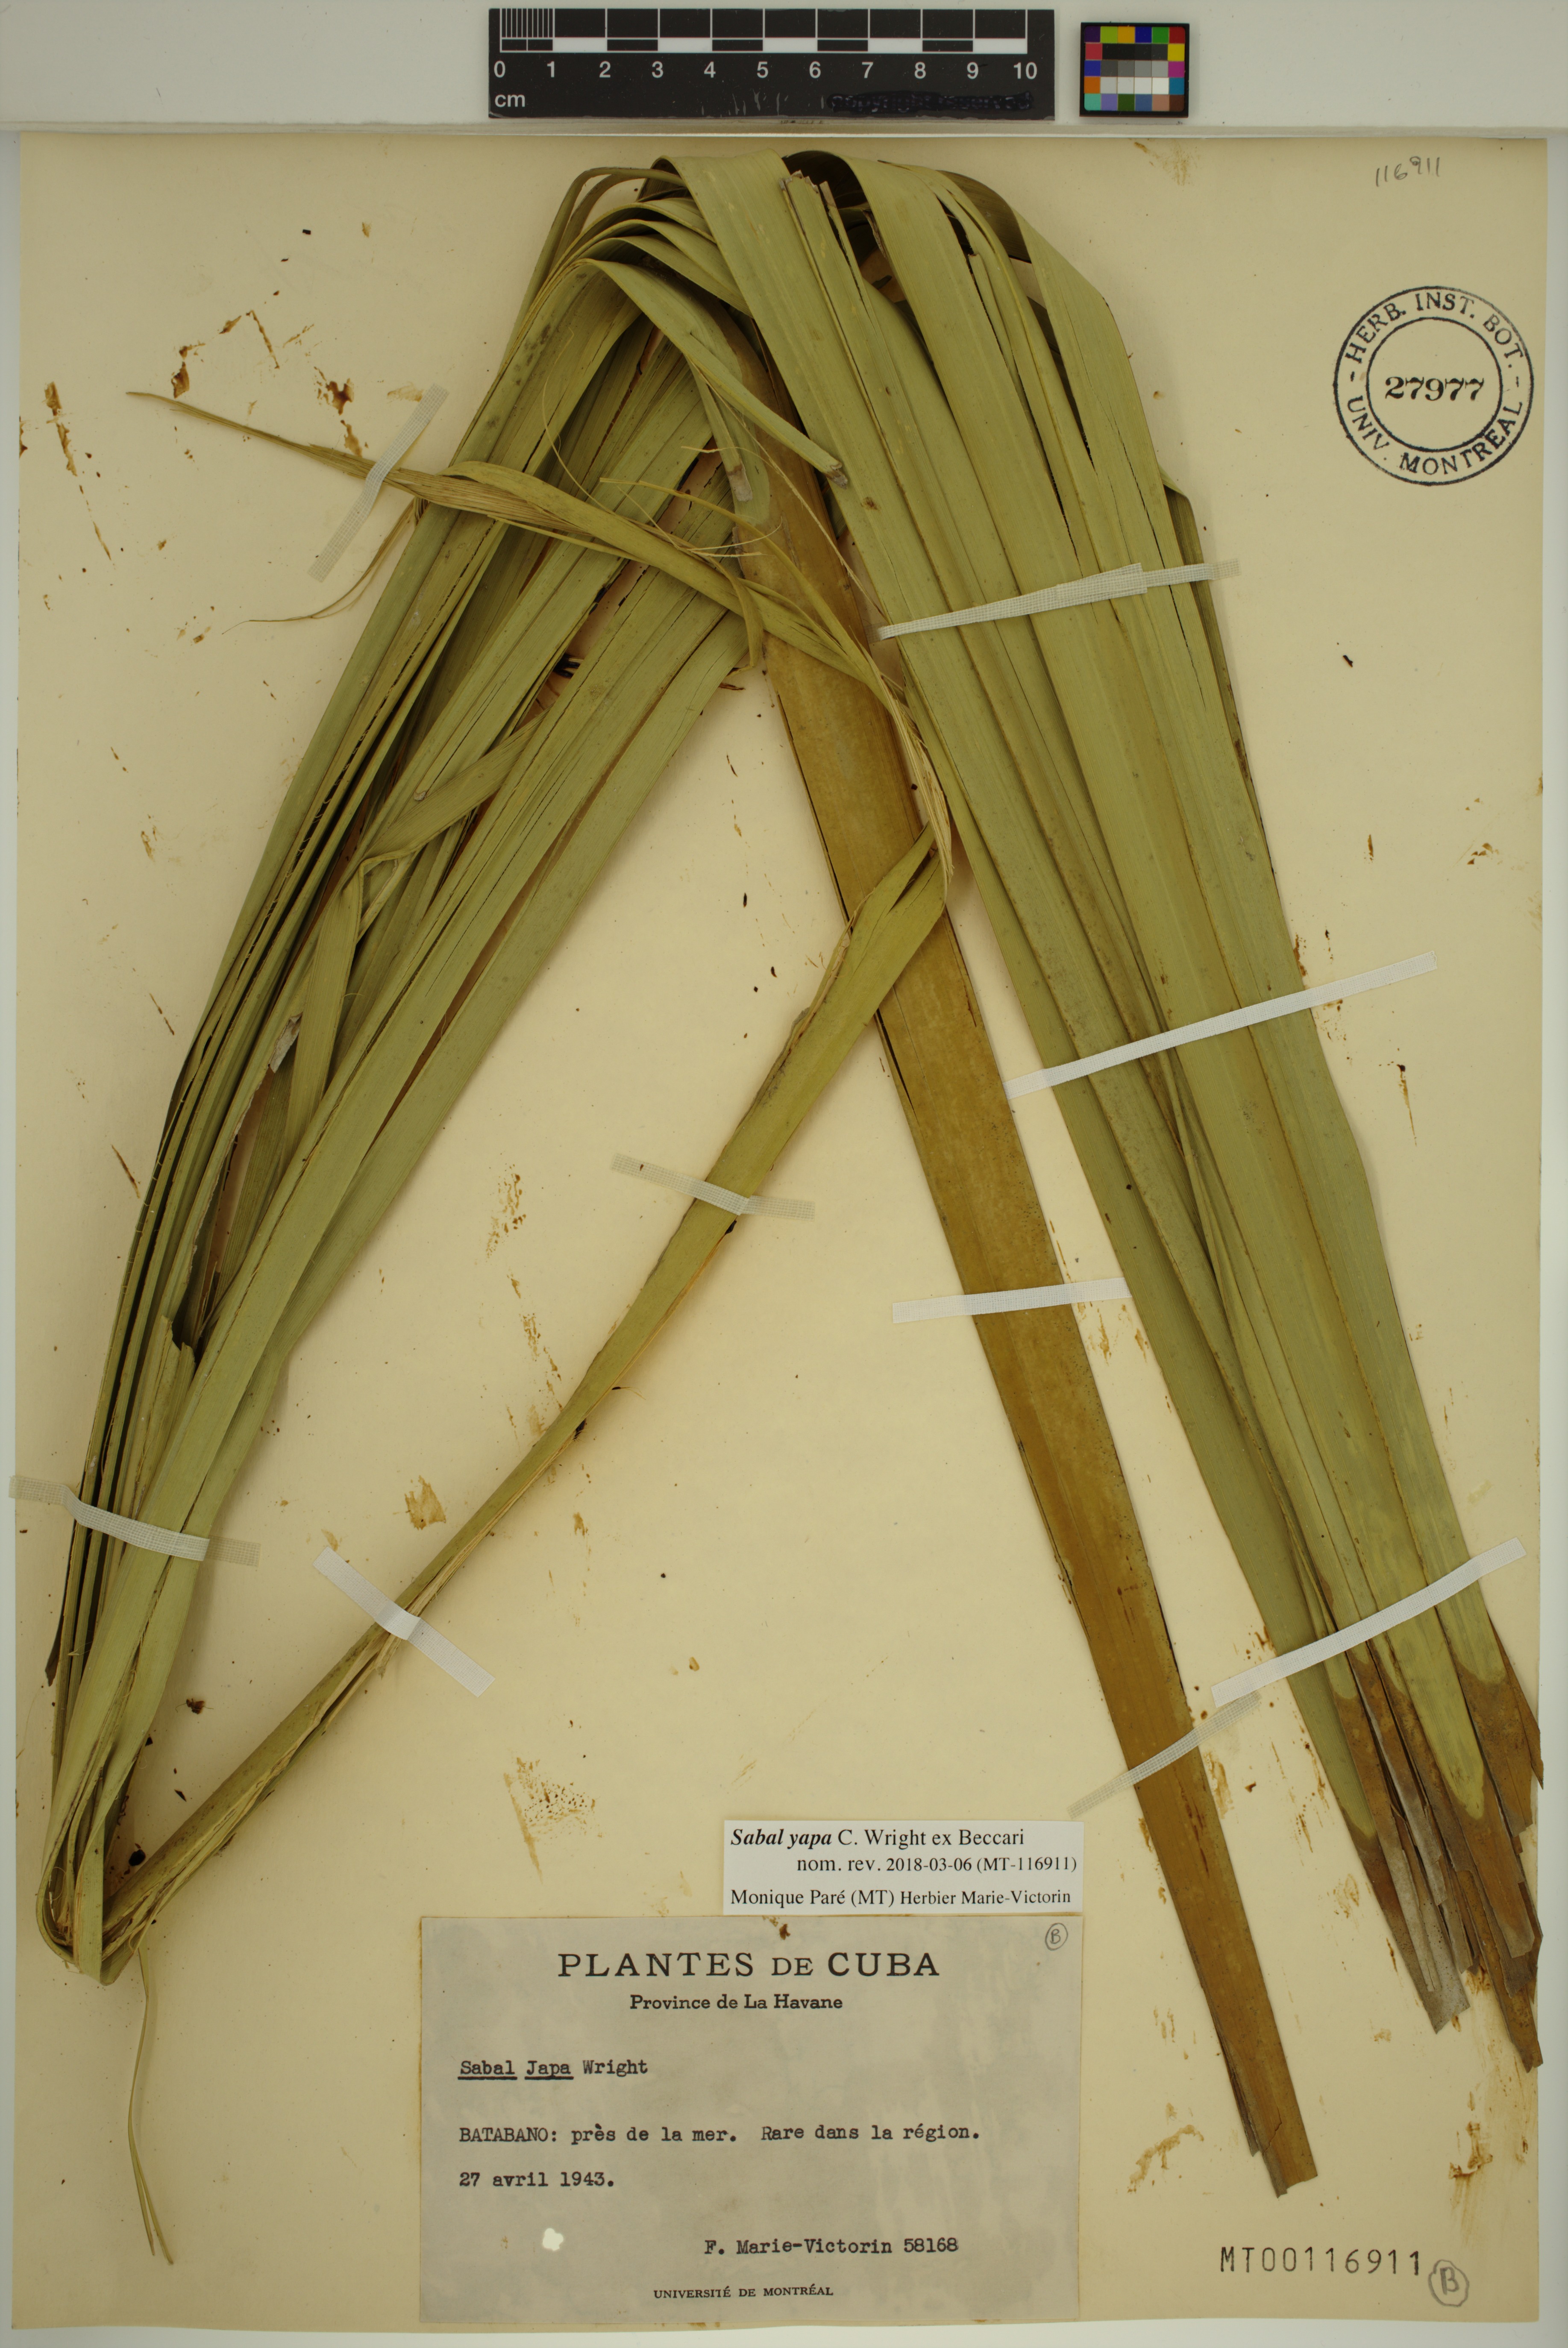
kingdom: Plantae
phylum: Tracheophyta
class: Liliopsida
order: Arecales
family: Arecaceae
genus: Sabal
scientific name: Sabal yapa
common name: Thatch palm
